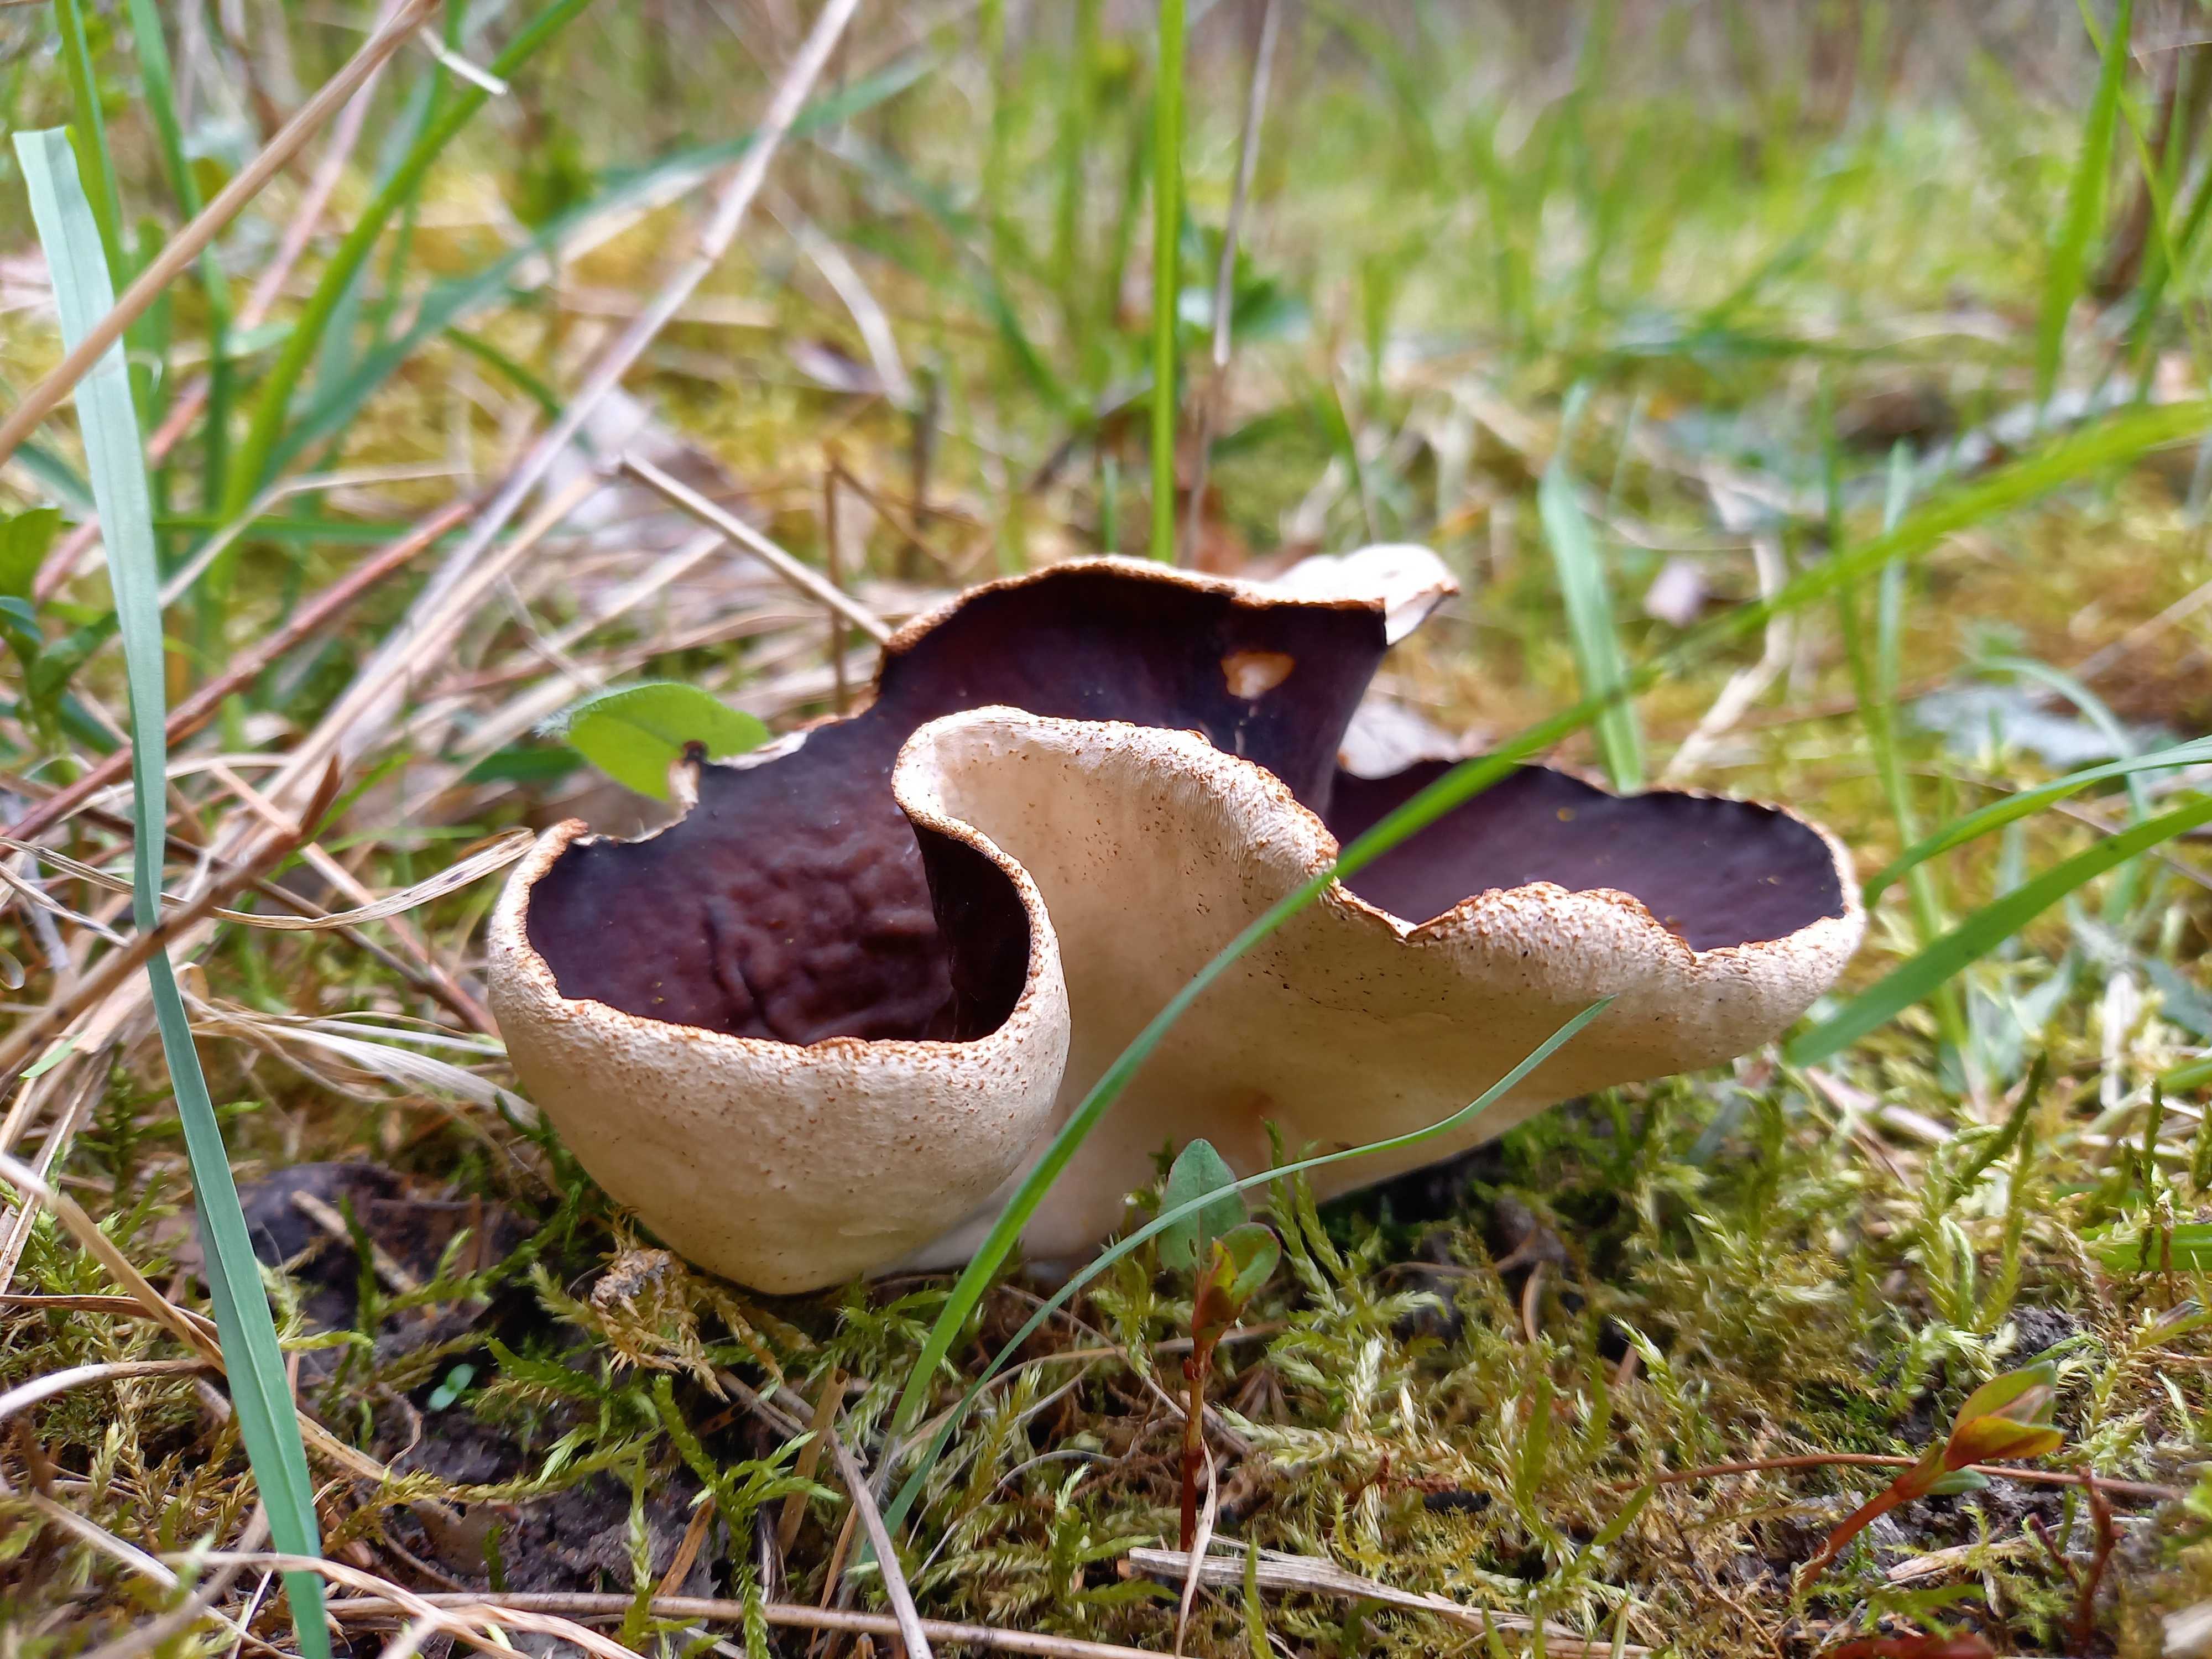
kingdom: Fungi
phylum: Ascomycota
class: Pezizomycetes
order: Pezizales
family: Morchellaceae
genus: Disciotis
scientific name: Disciotis venosa
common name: klor-bægermorkel
